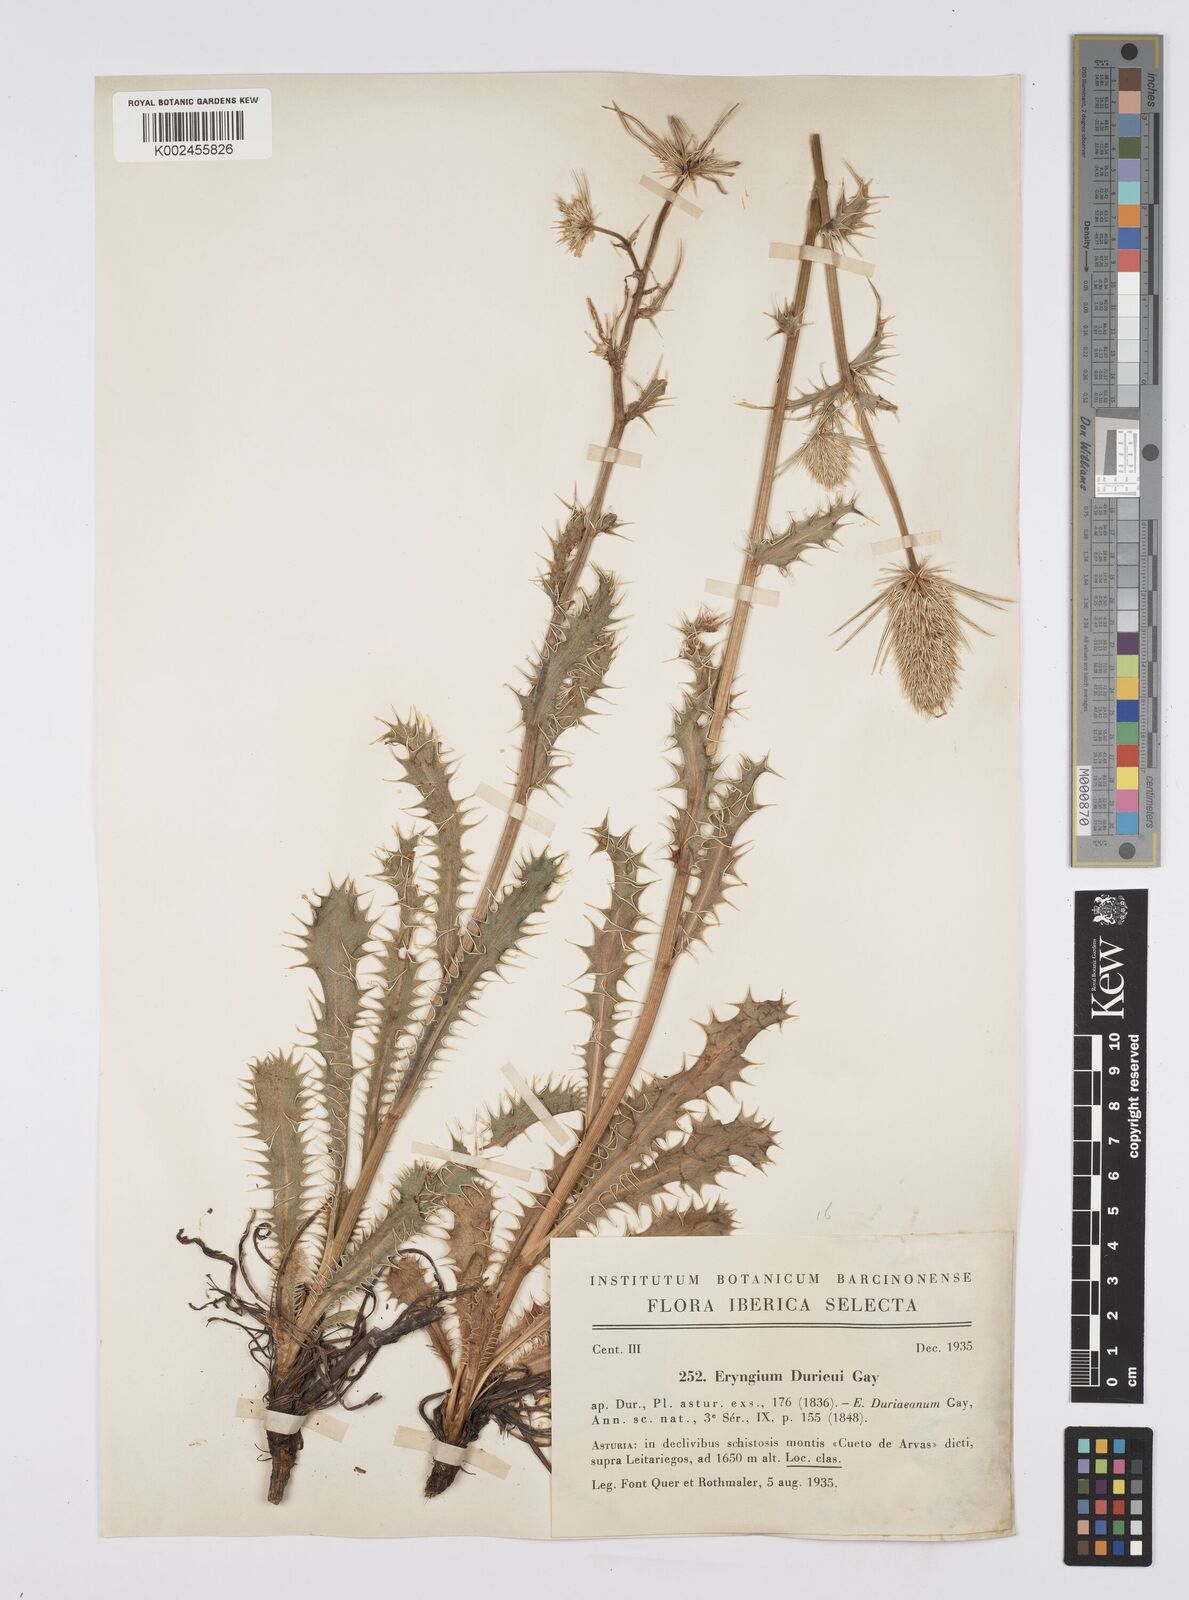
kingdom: Plantae
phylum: Tracheophyta
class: Magnoliopsida
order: Apiales
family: Apiaceae
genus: Eryngium
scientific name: Eryngium duriaei
